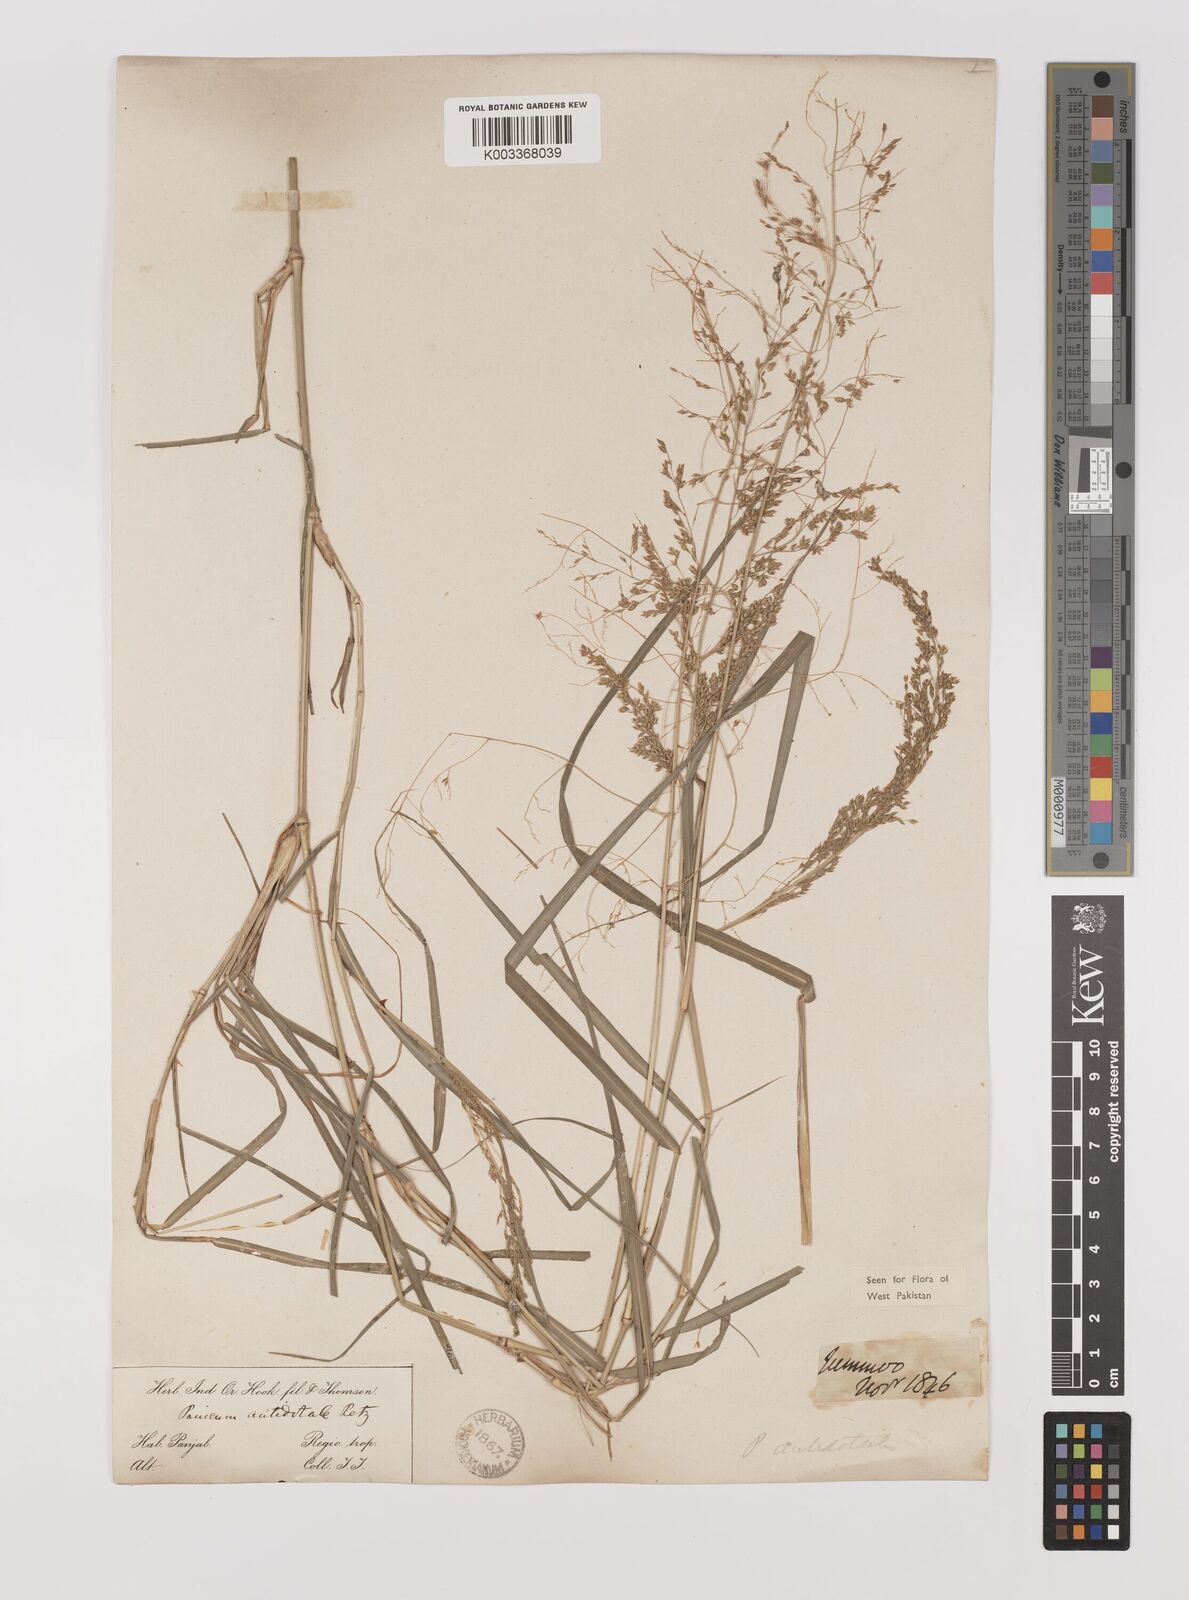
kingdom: Plantae
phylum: Tracheophyta
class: Liliopsida
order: Poales
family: Poaceae
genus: Panicum
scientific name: Panicum antidotale
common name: Blue panicum
